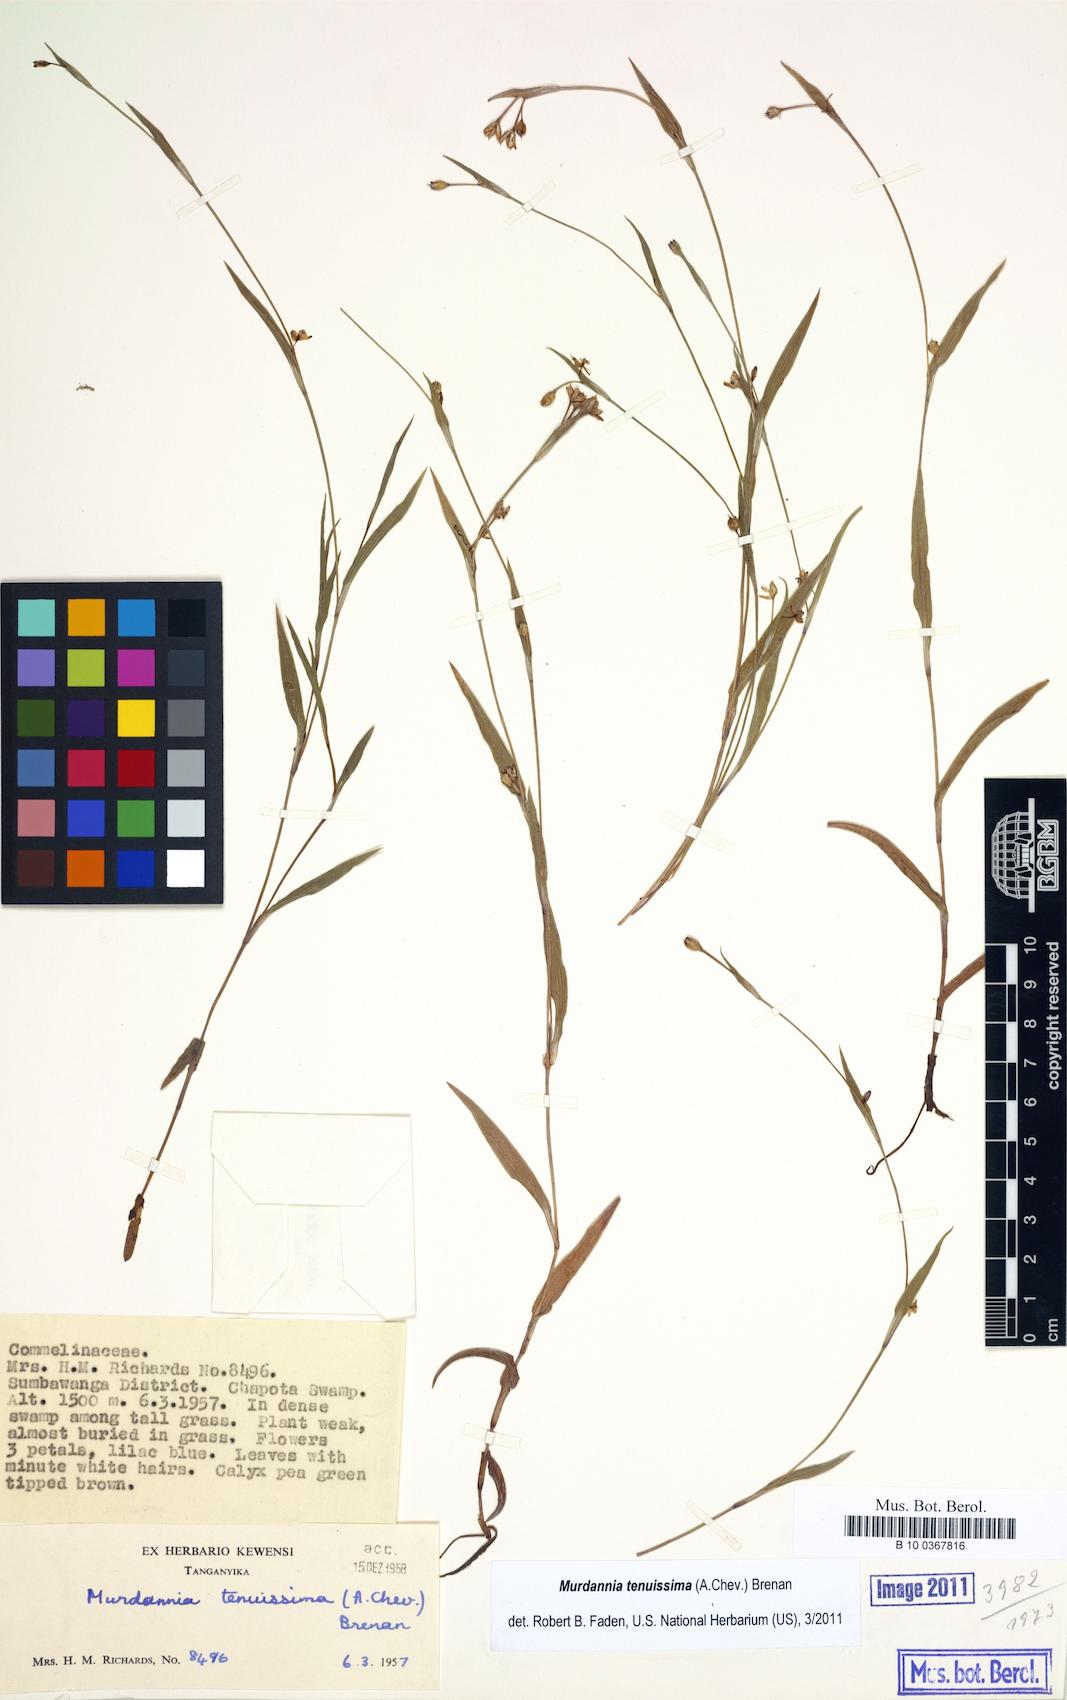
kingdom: Plantae
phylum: Tracheophyta
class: Liliopsida
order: Commelinales
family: Commelinaceae
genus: Murdannia
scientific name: Murdannia tenuissima
